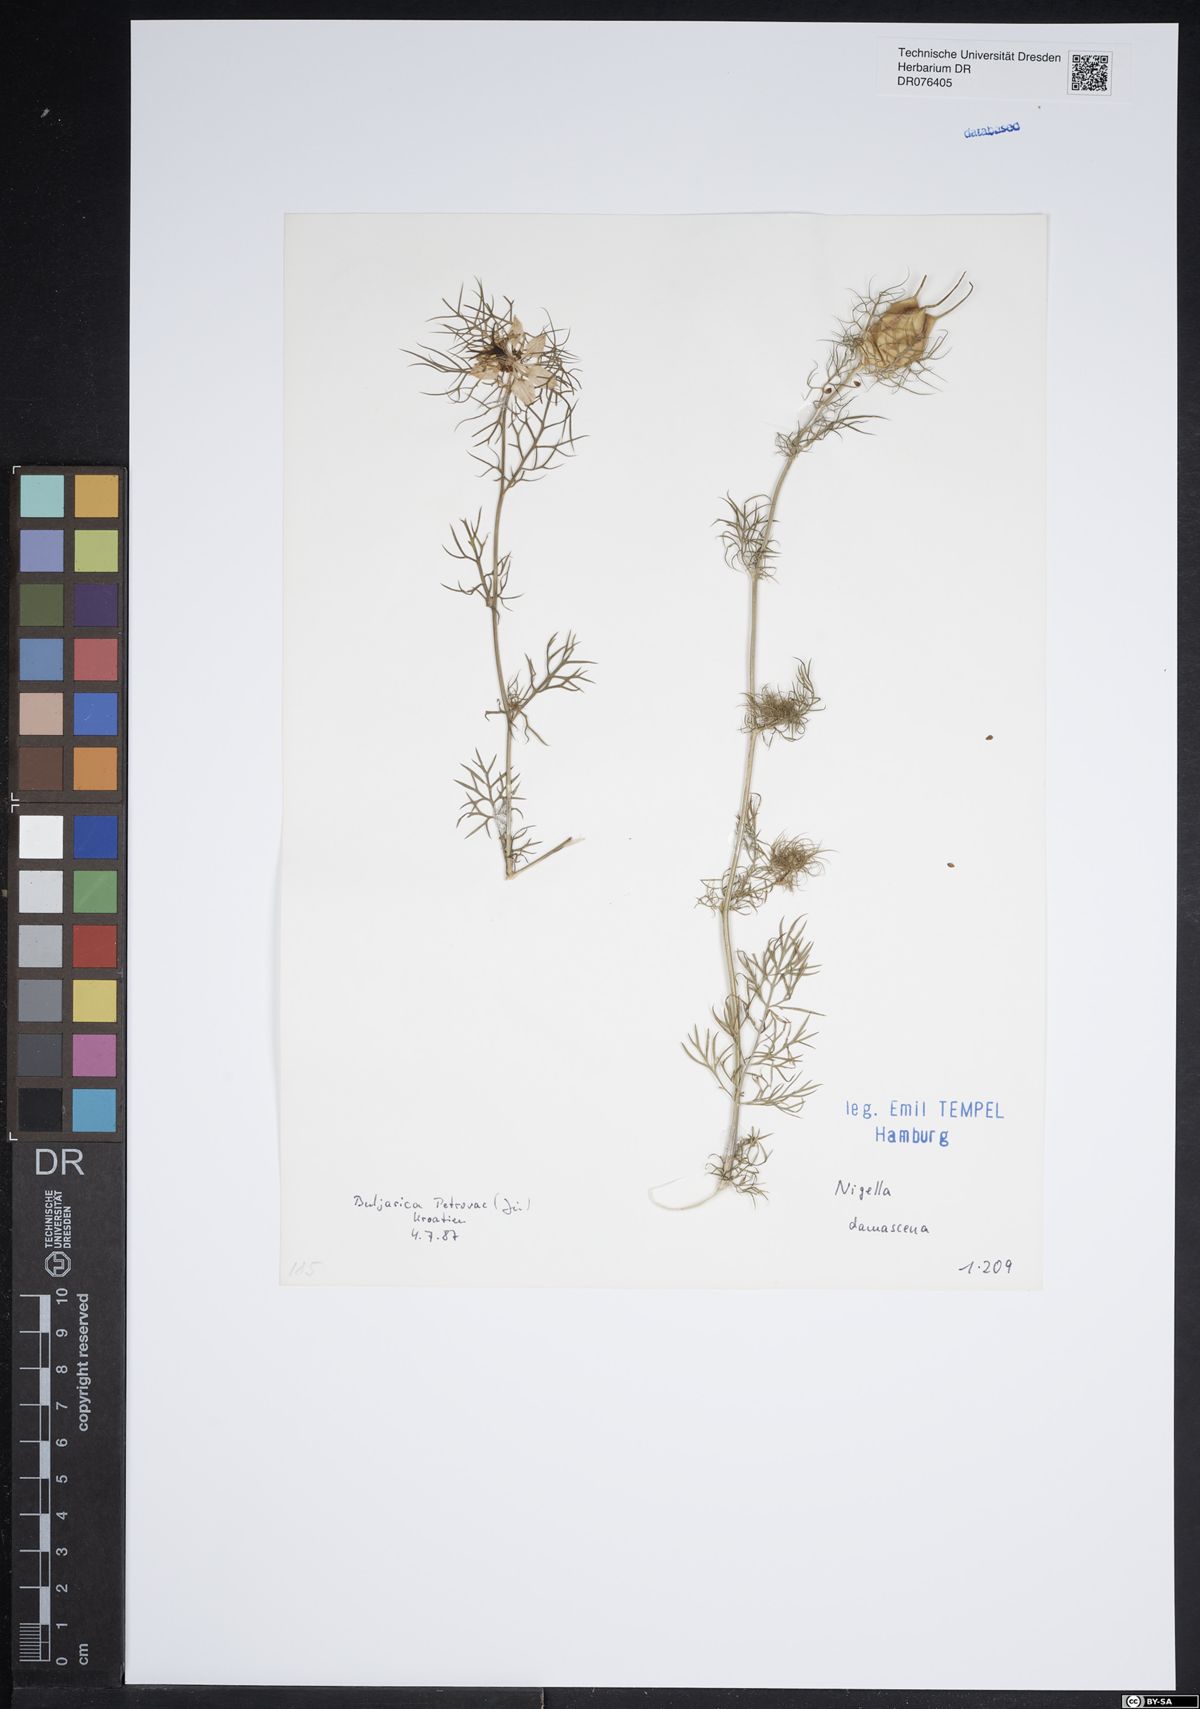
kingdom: Plantae
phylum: Tracheophyta
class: Magnoliopsida
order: Ranunculales
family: Ranunculaceae
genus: Nigella
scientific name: Nigella damascena
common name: Love-in-a-mist
